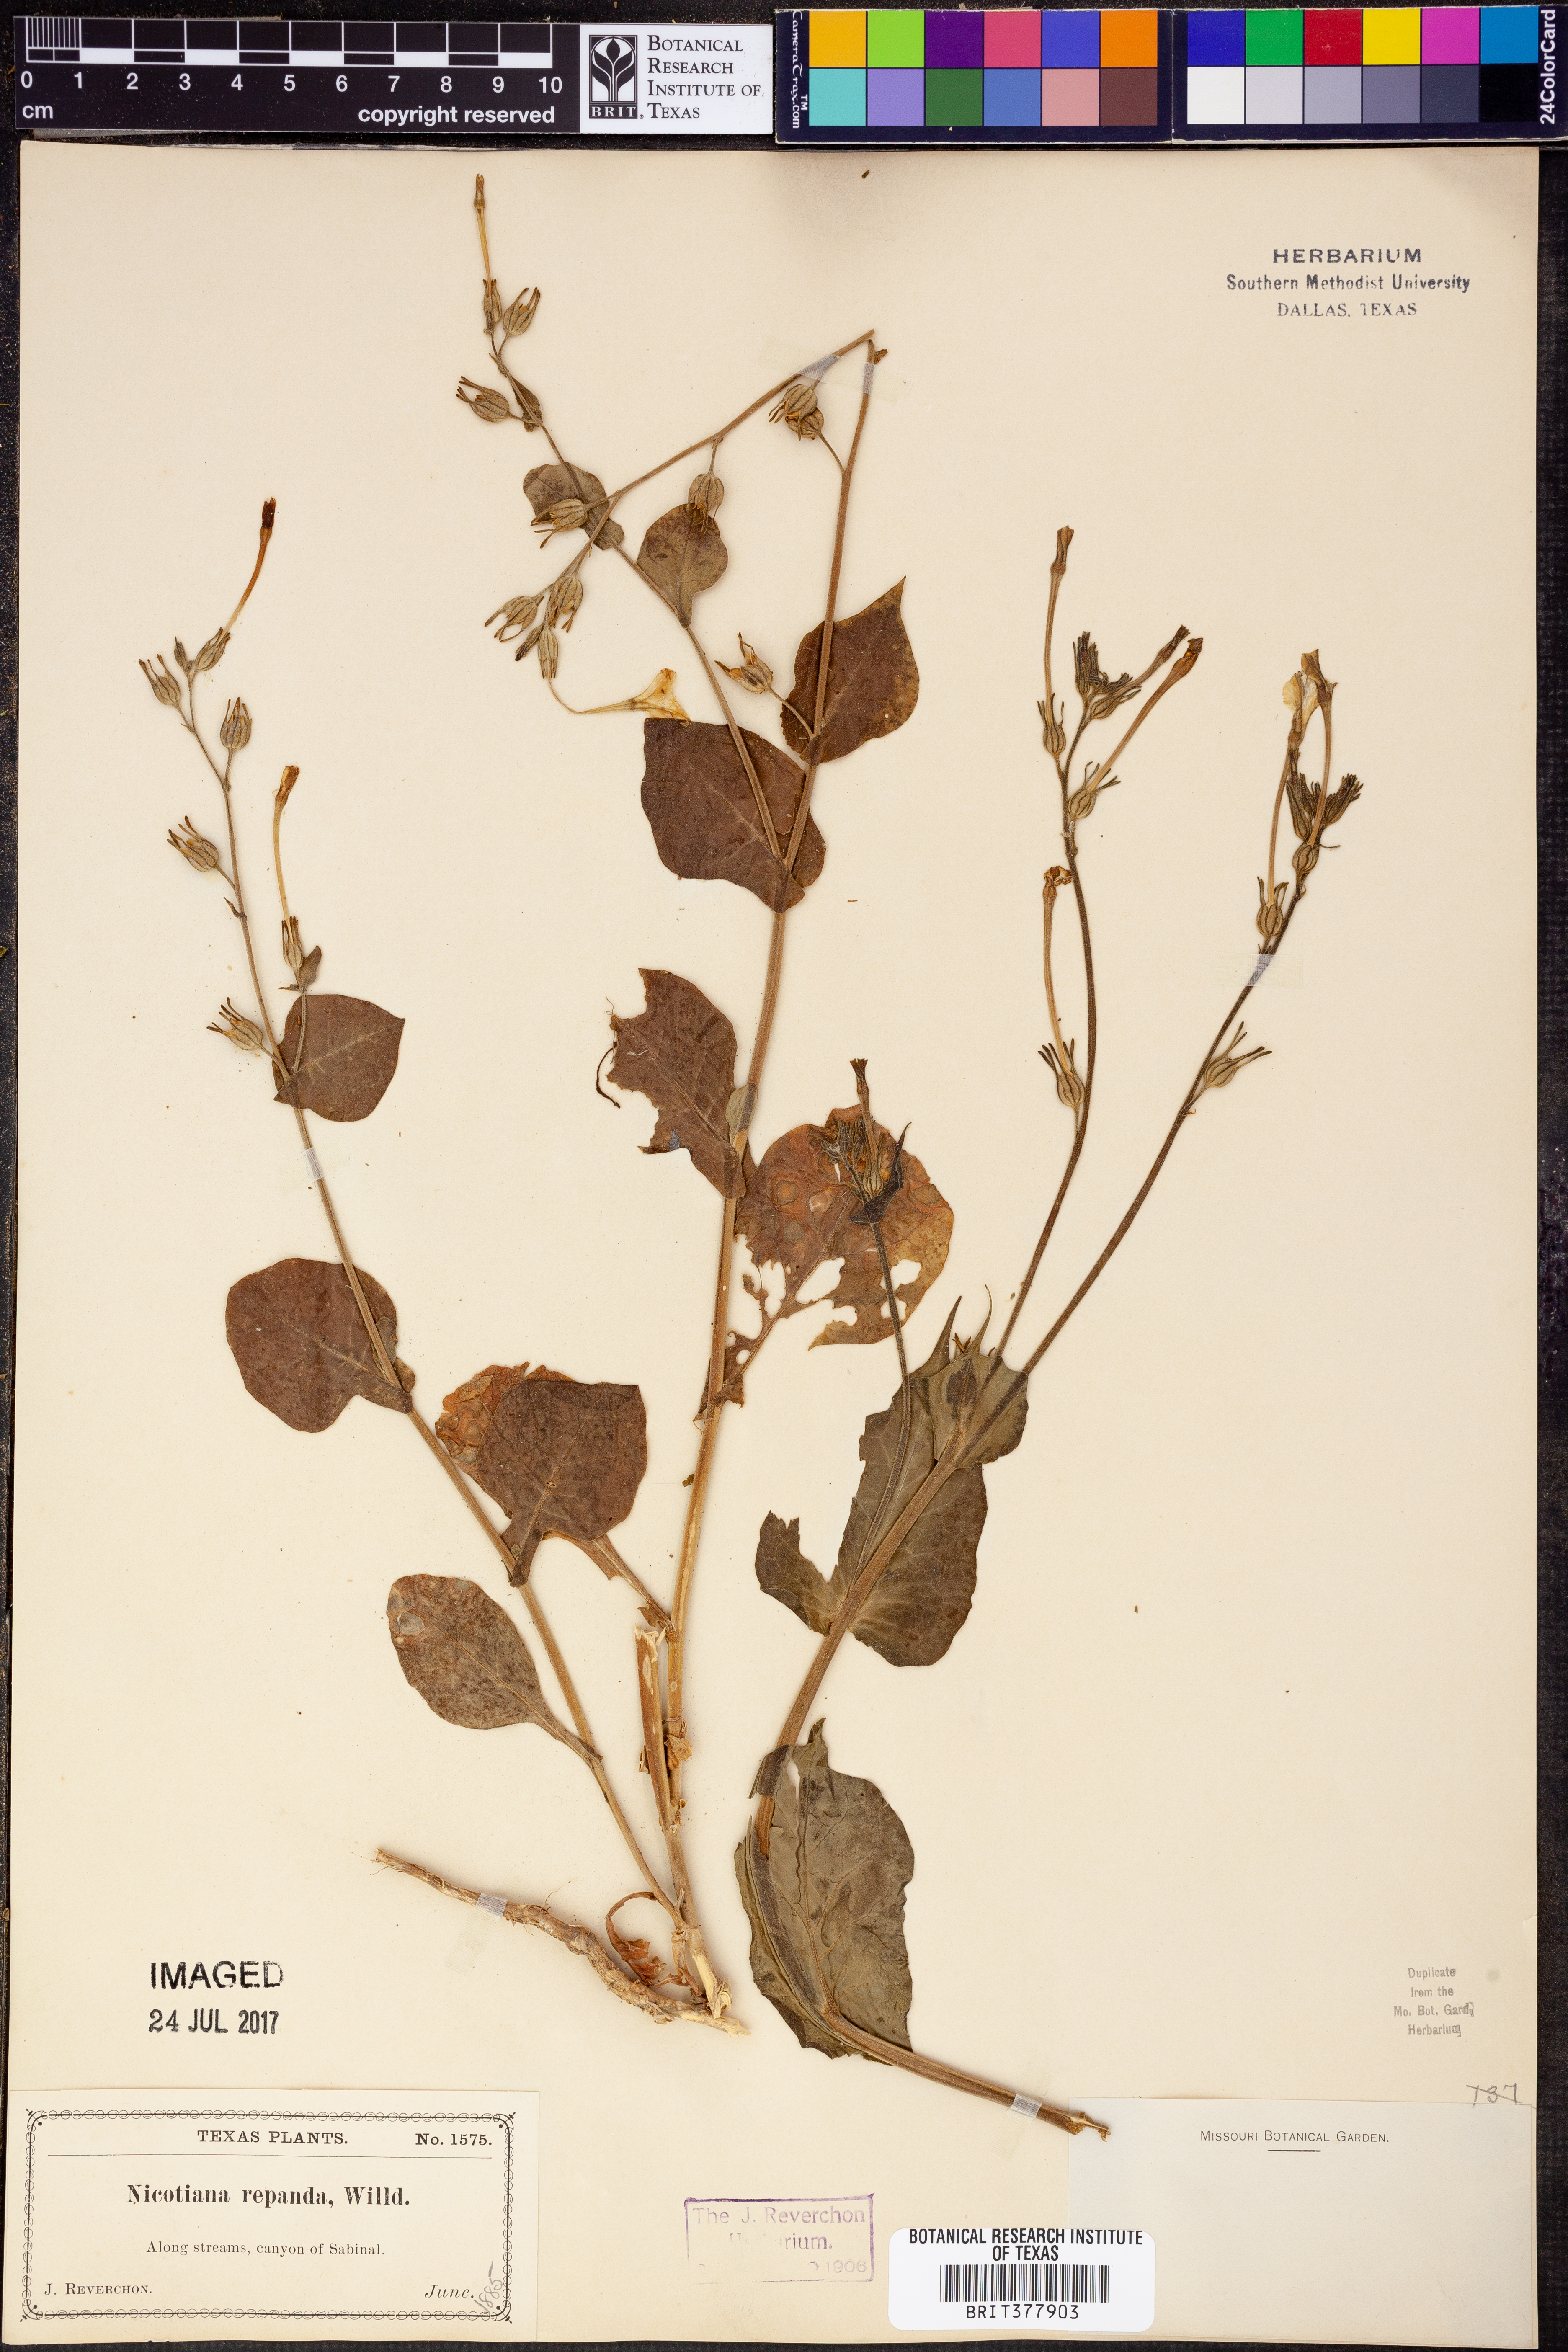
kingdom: Plantae
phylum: Tracheophyta
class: Magnoliopsida
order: Solanales
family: Solanaceae
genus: Nicotiana
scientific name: Nicotiana repanda
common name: Fiddle-leaf tobacco
